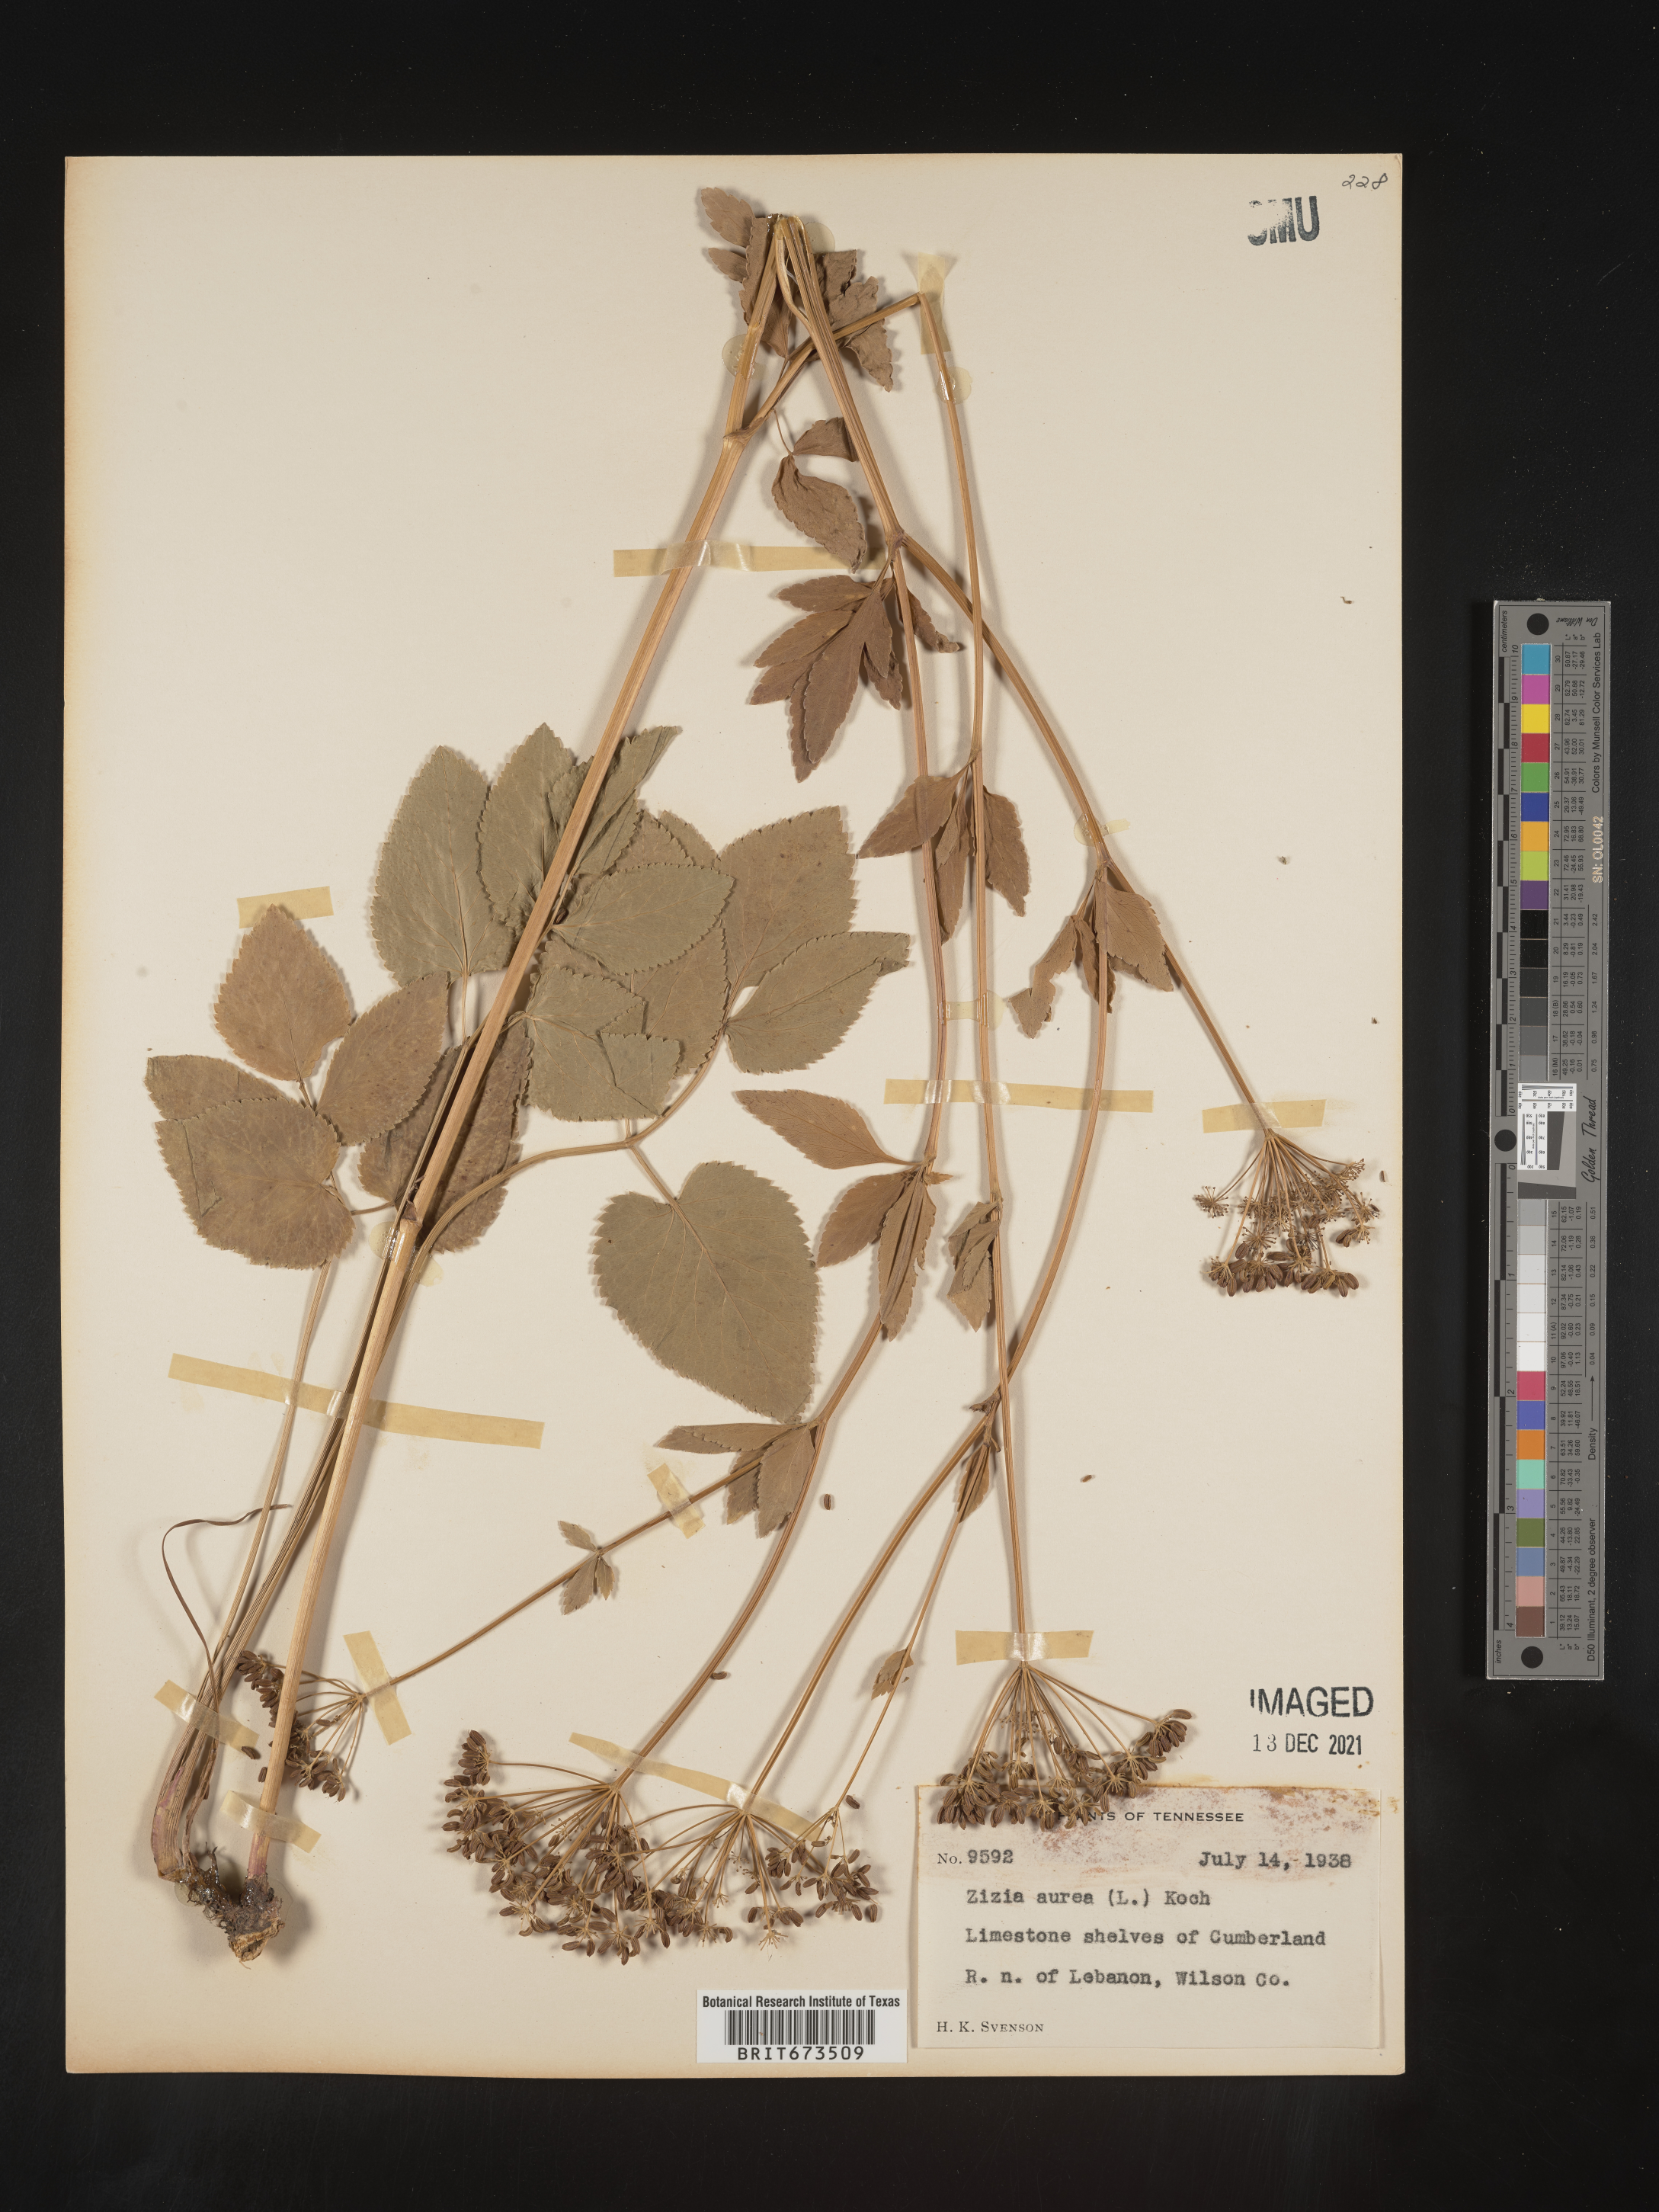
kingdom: Plantae
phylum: Tracheophyta
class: Magnoliopsida
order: Apiales
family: Apiaceae
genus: Zizia
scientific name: Zizia aurea
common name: Golden alexanders
